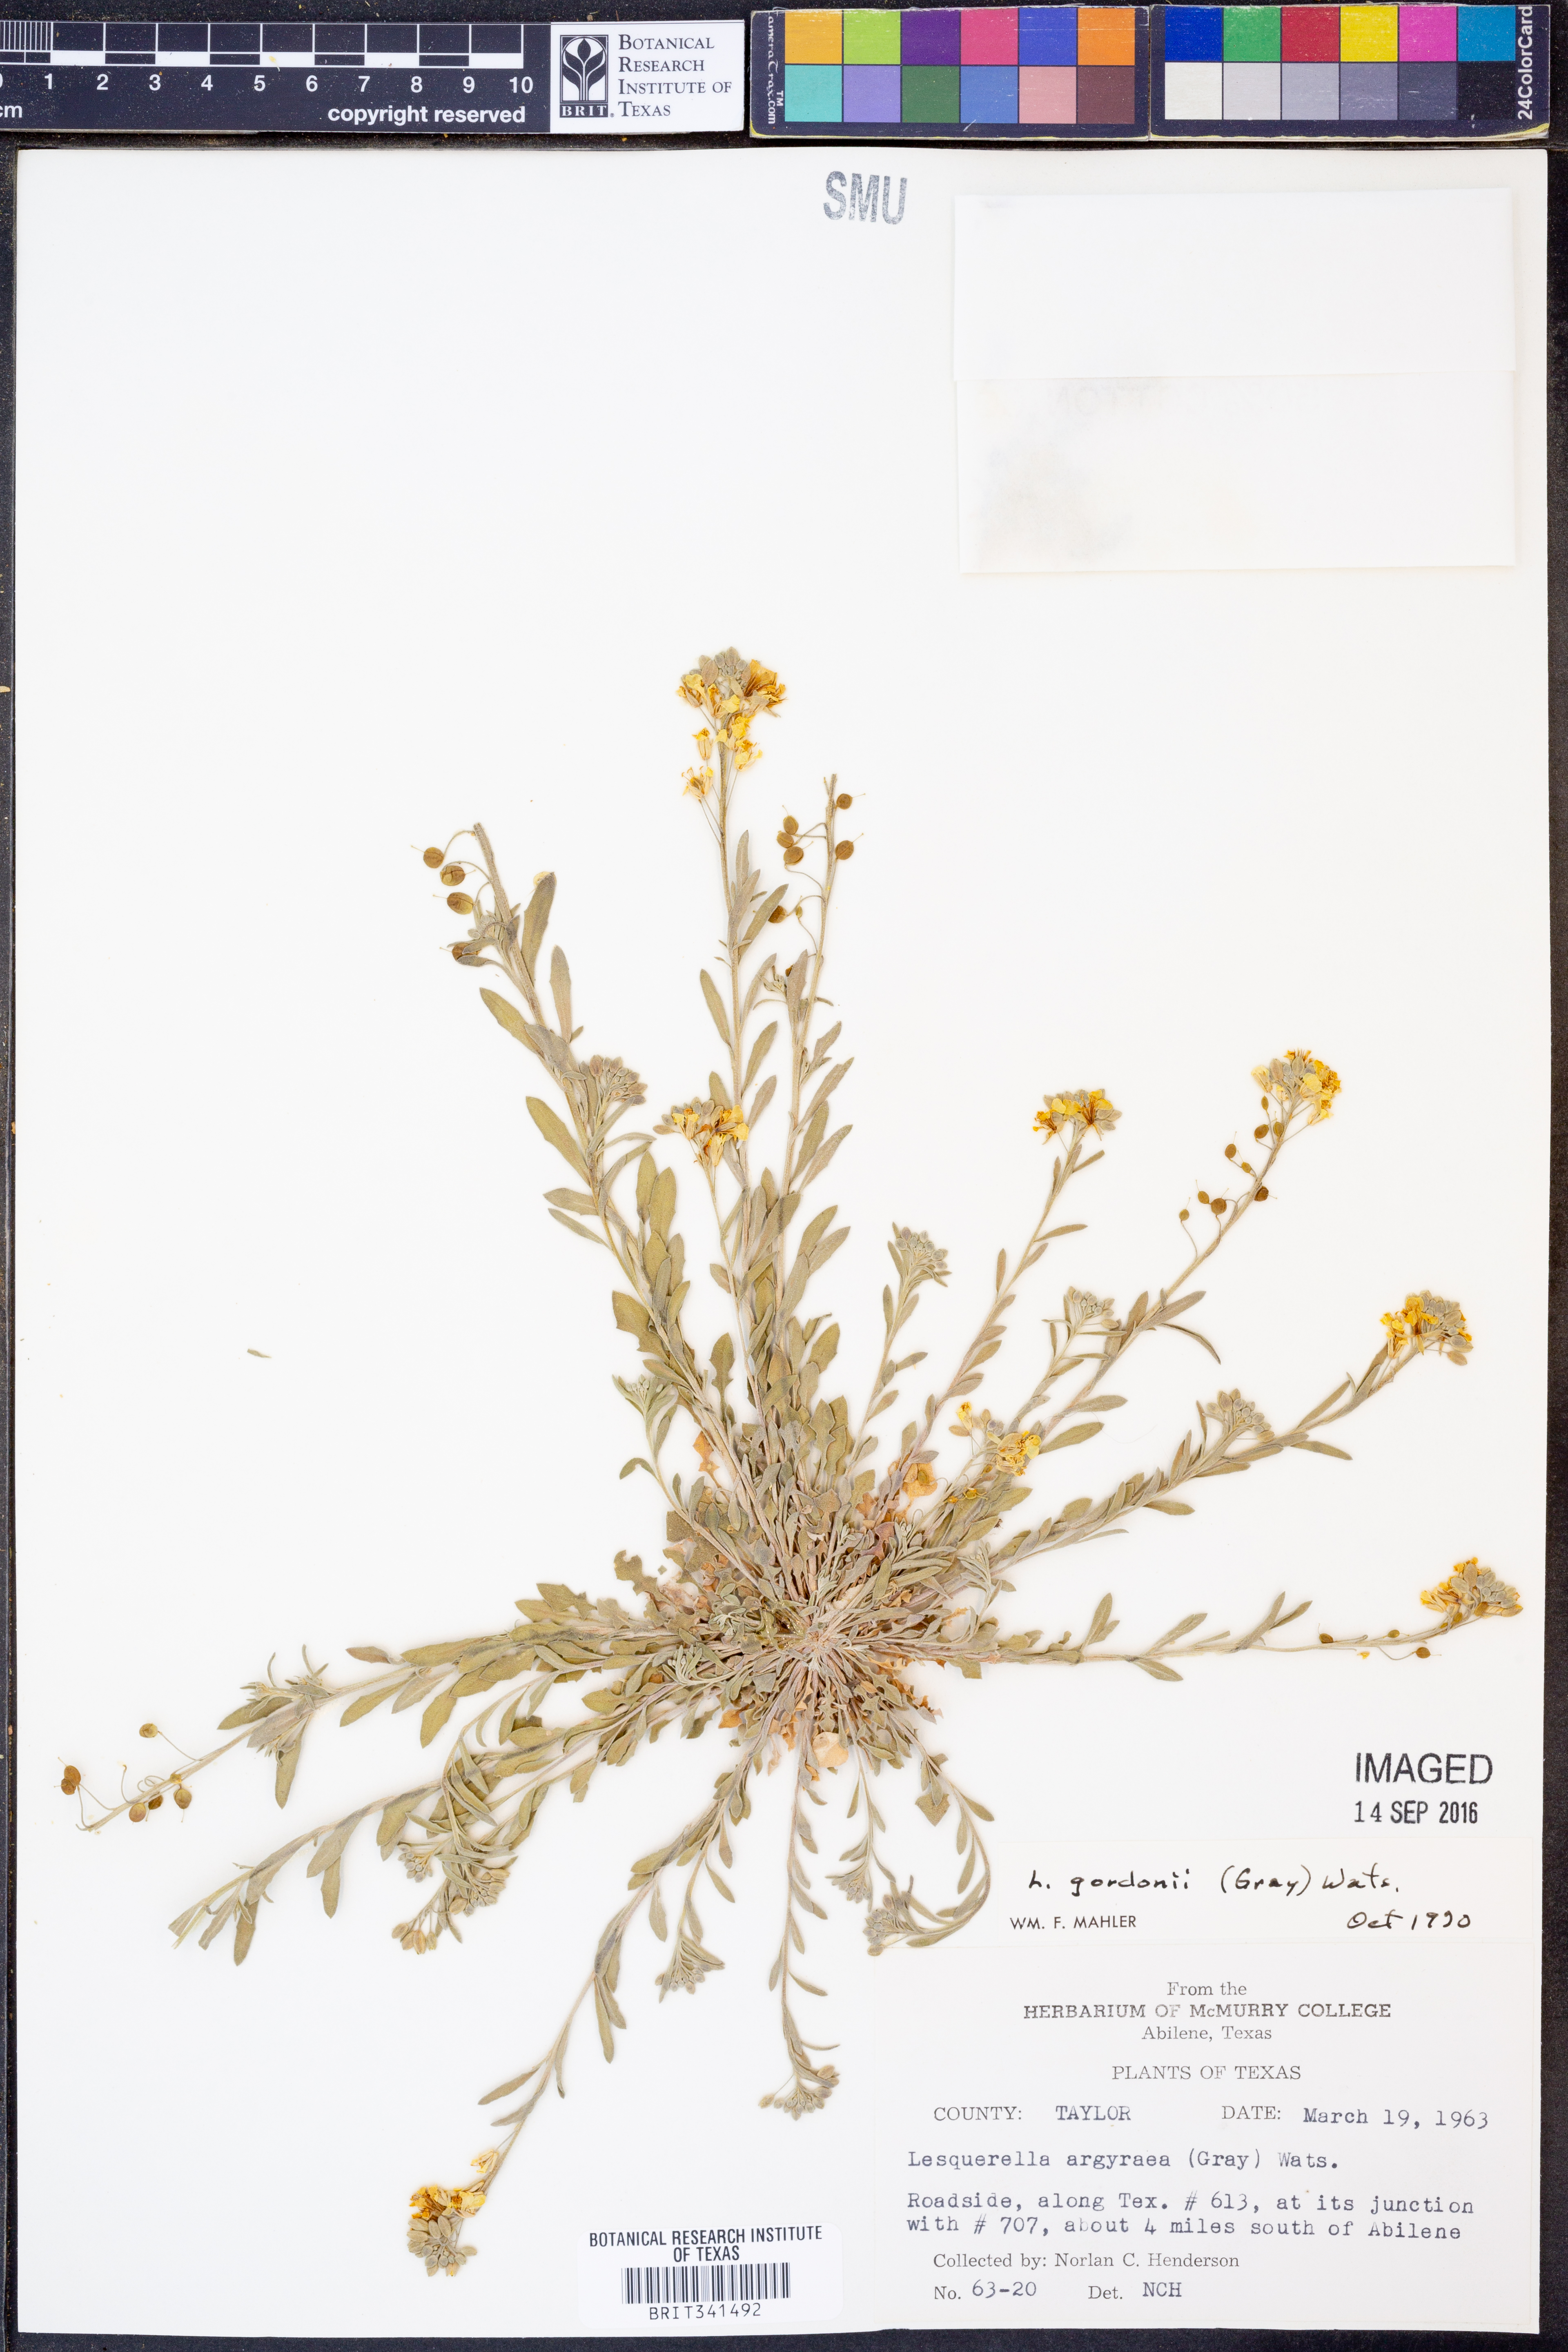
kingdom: Plantae
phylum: Tracheophyta
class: Magnoliopsida
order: Brassicales
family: Brassicaceae
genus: Physaria
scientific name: Physaria gordonii
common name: Gordon's bladderpod
